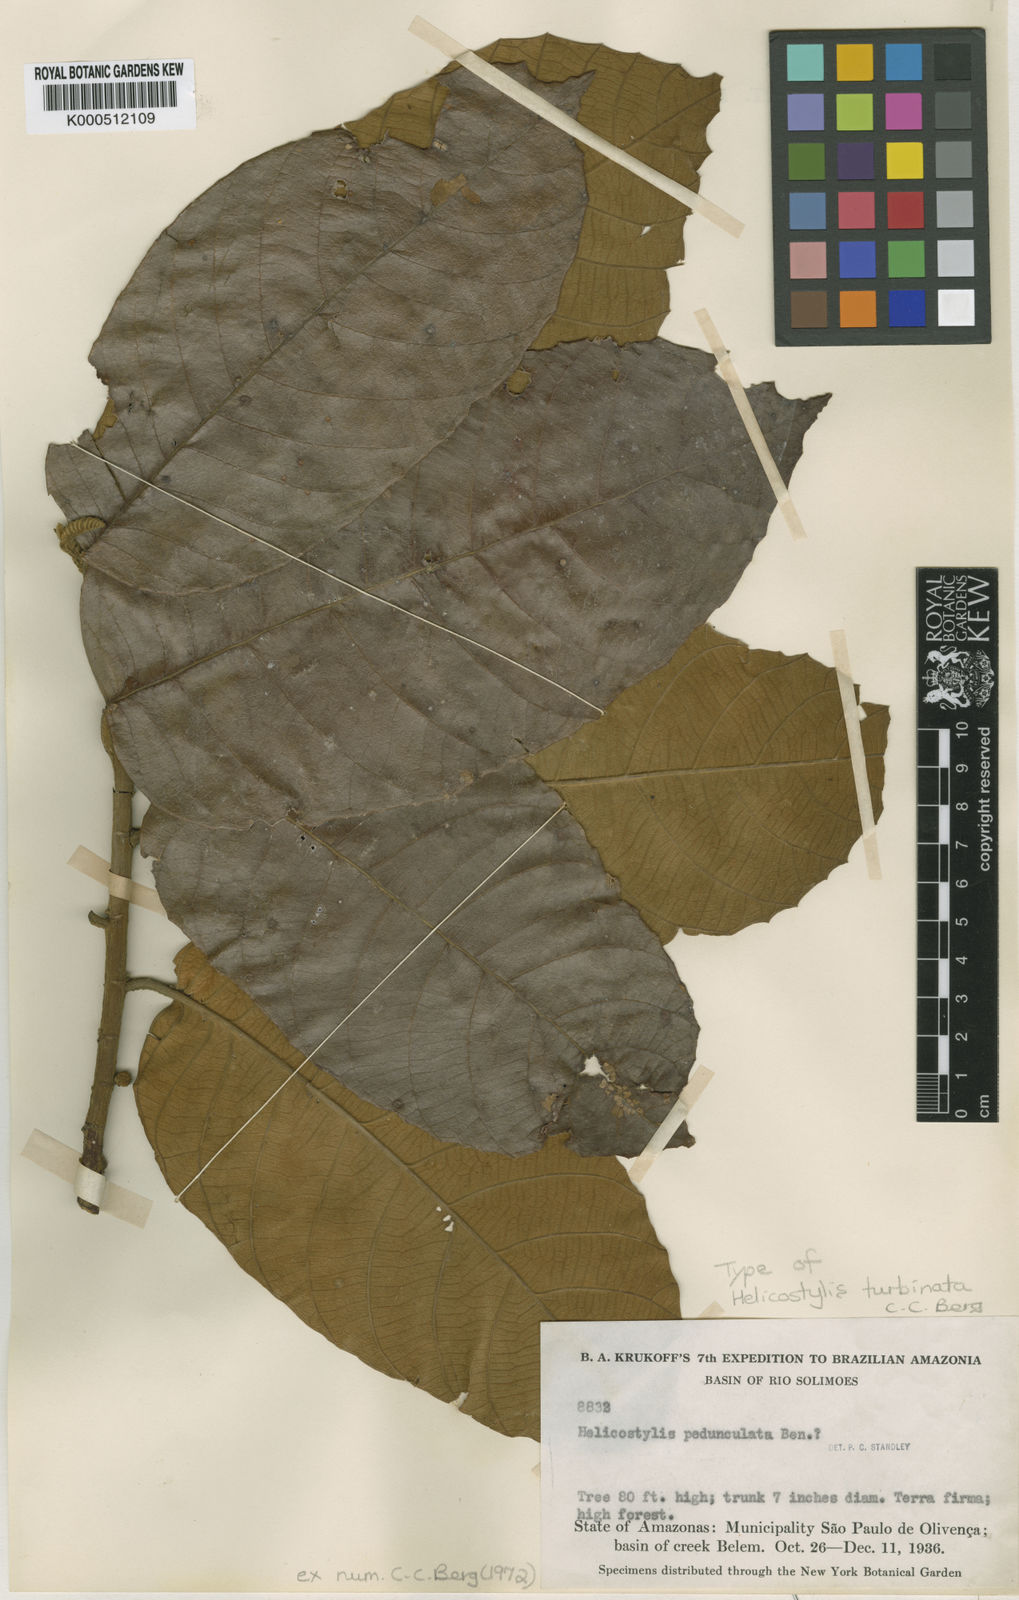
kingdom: Plantae
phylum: Tracheophyta
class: Magnoliopsida
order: Rosales
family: Moraceae
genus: Helicostylis
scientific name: Helicostylis turbinata
